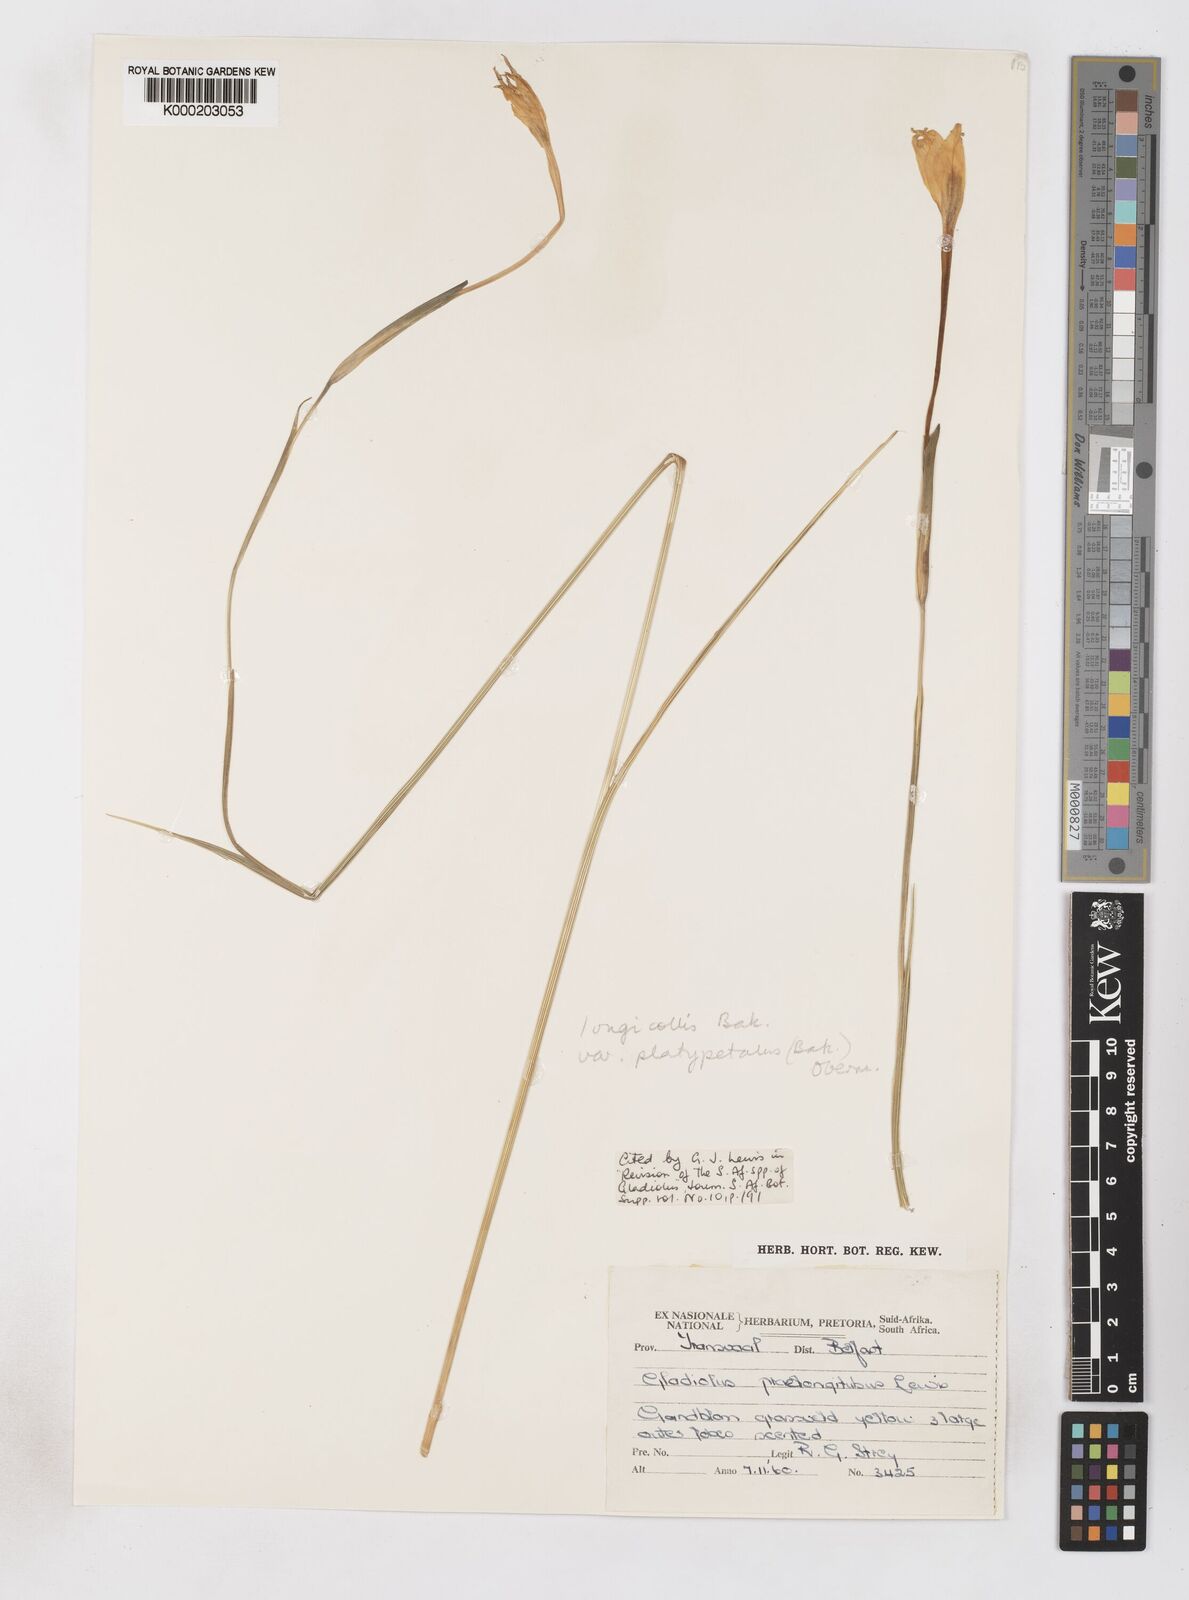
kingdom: Plantae
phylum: Tracheophyta
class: Liliopsida
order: Asparagales
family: Iridaceae
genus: Gladiolus
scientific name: Gladiolus longicollis
